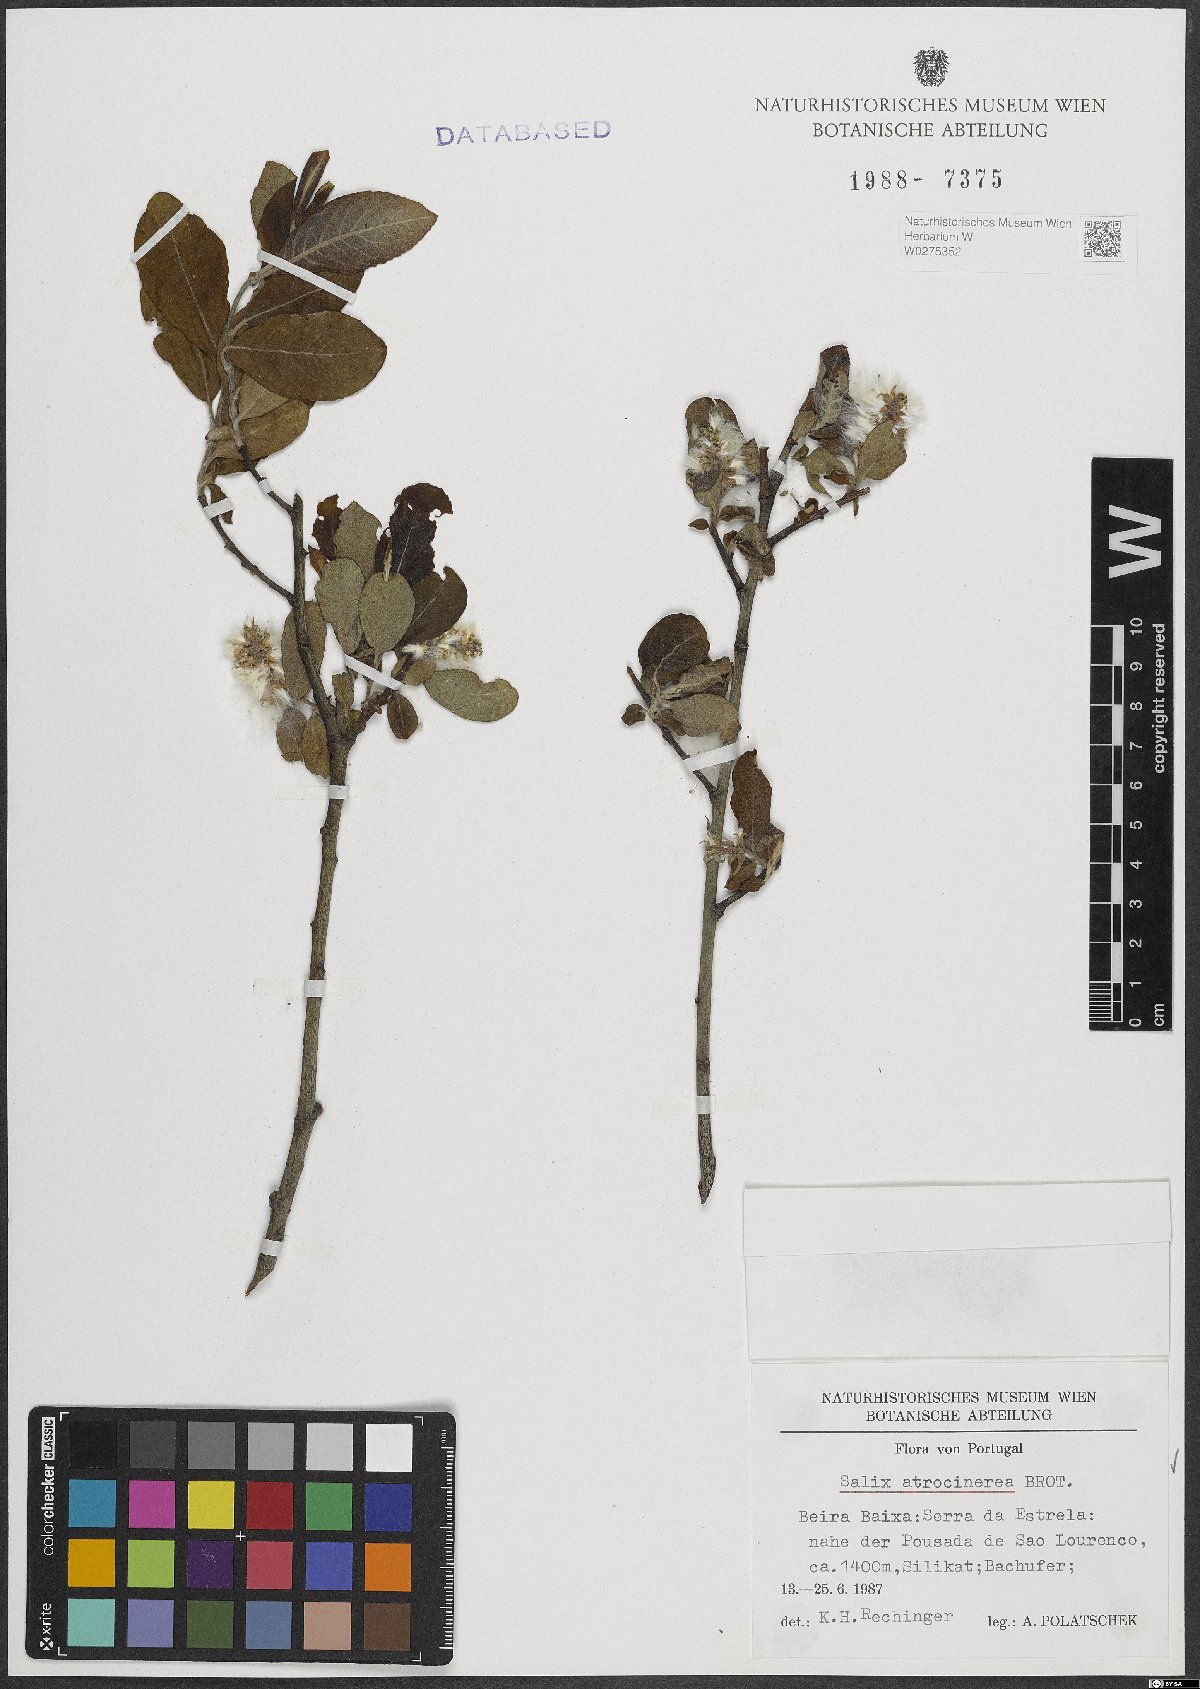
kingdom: Plantae
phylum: Tracheophyta
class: Magnoliopsida
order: Malpighiales
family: Salicaceae
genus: Salix
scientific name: Salix atrocinerea
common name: Rusty willow
